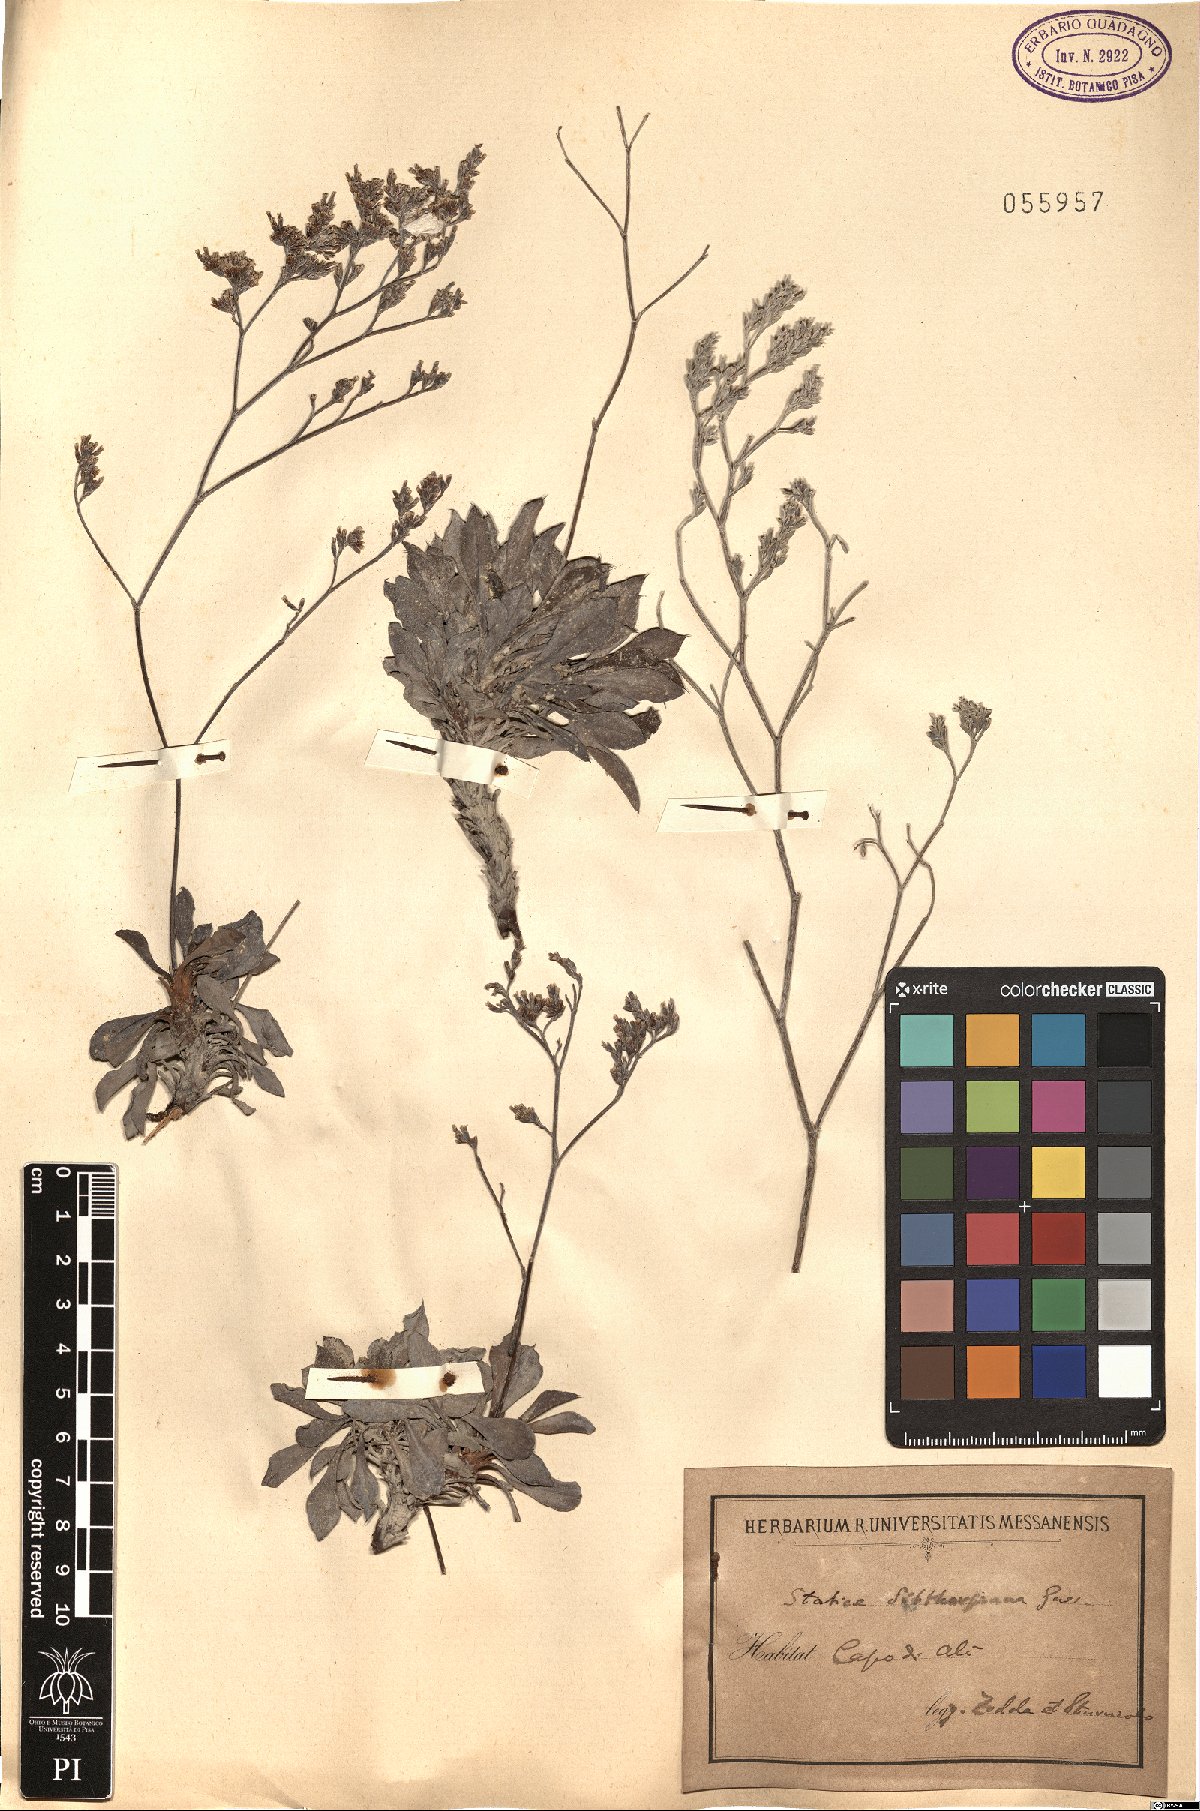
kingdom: Plantae
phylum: Tracheophyta
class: Magnoliopsida
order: Caryophyllales
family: Plumbaginaceae
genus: Limonium
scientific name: Limonium sibthorpianum
